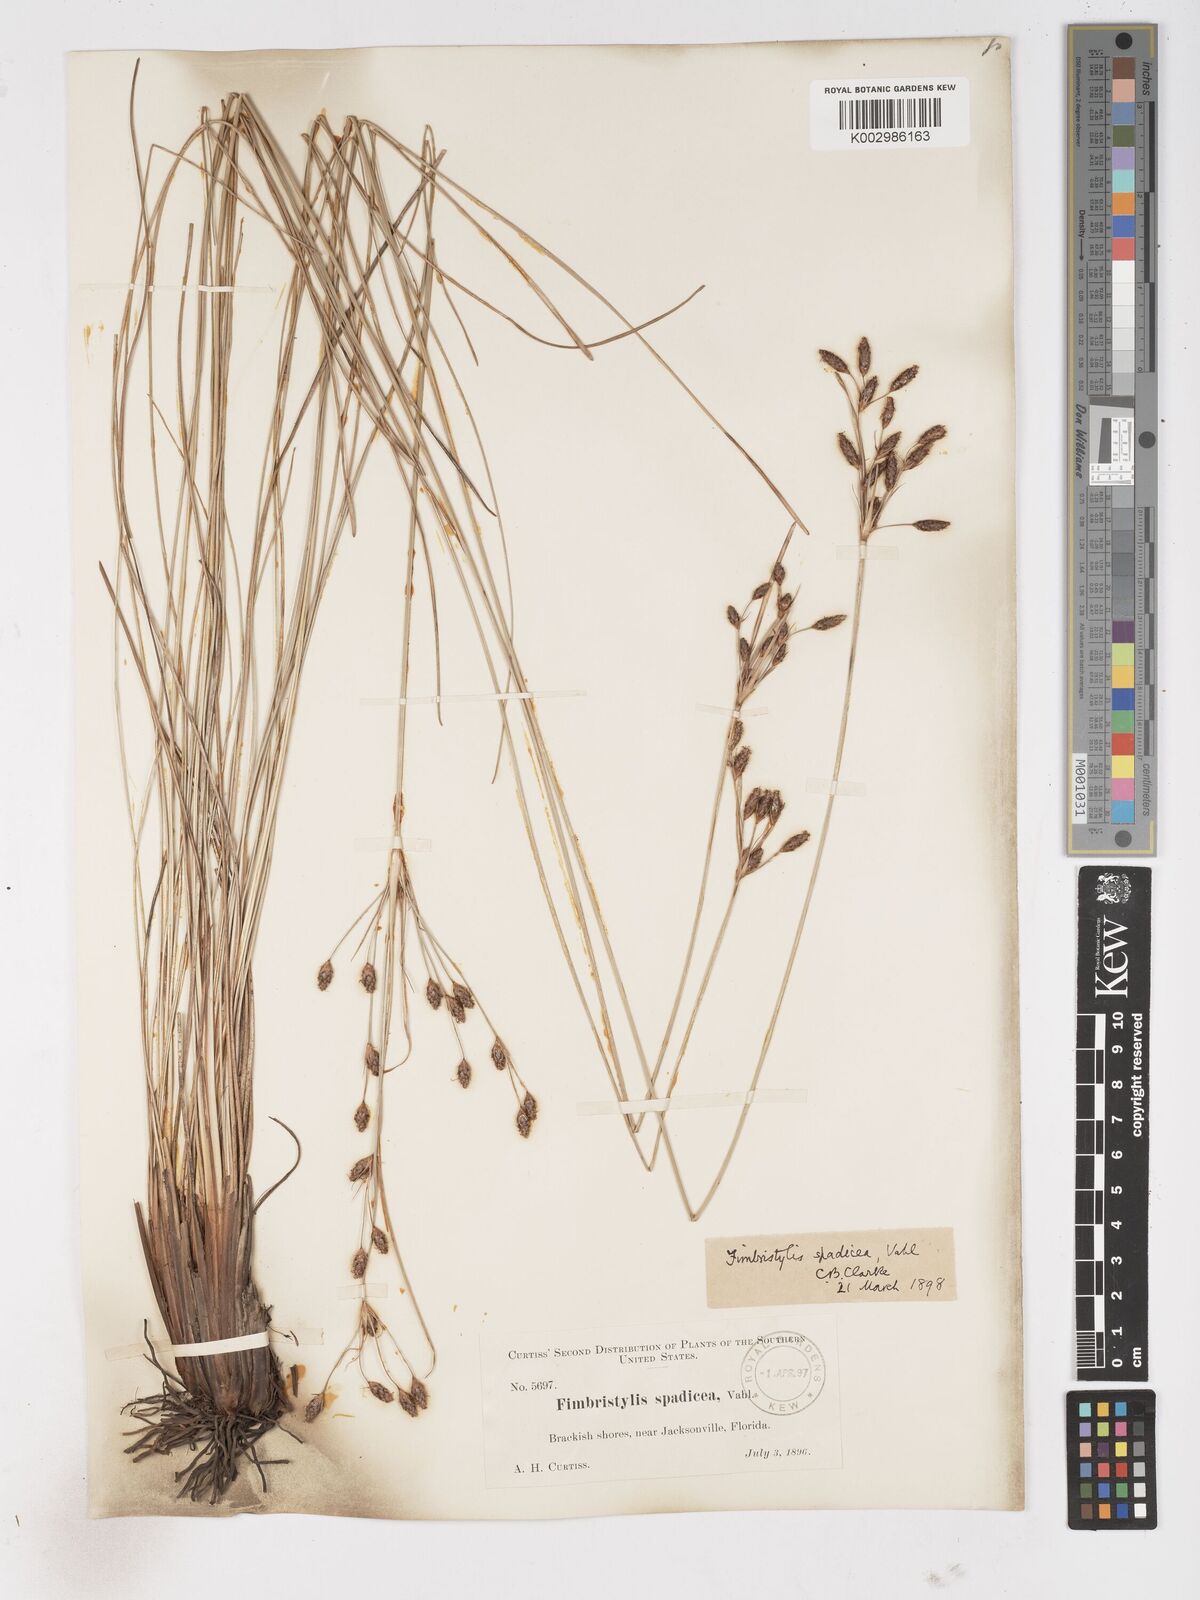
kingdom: Plantae
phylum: Tracheophyta
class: Liliopsida
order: Poales
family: Cyperaceae
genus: Fimbristylis
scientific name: Fimbristylis spadicea
